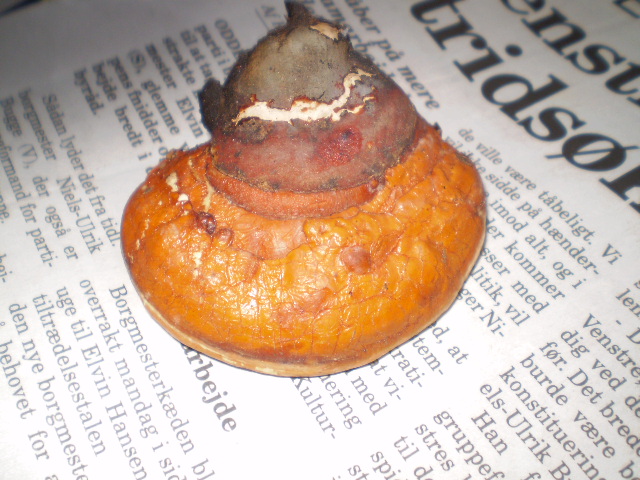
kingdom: Fungi
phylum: Basidiomycota
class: Agaricomycetes
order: Polyporales
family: Fomitopsidaceae
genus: Fomitopsis
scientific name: Fomitopsis pinicola
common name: randbæltet hovporesvamp
